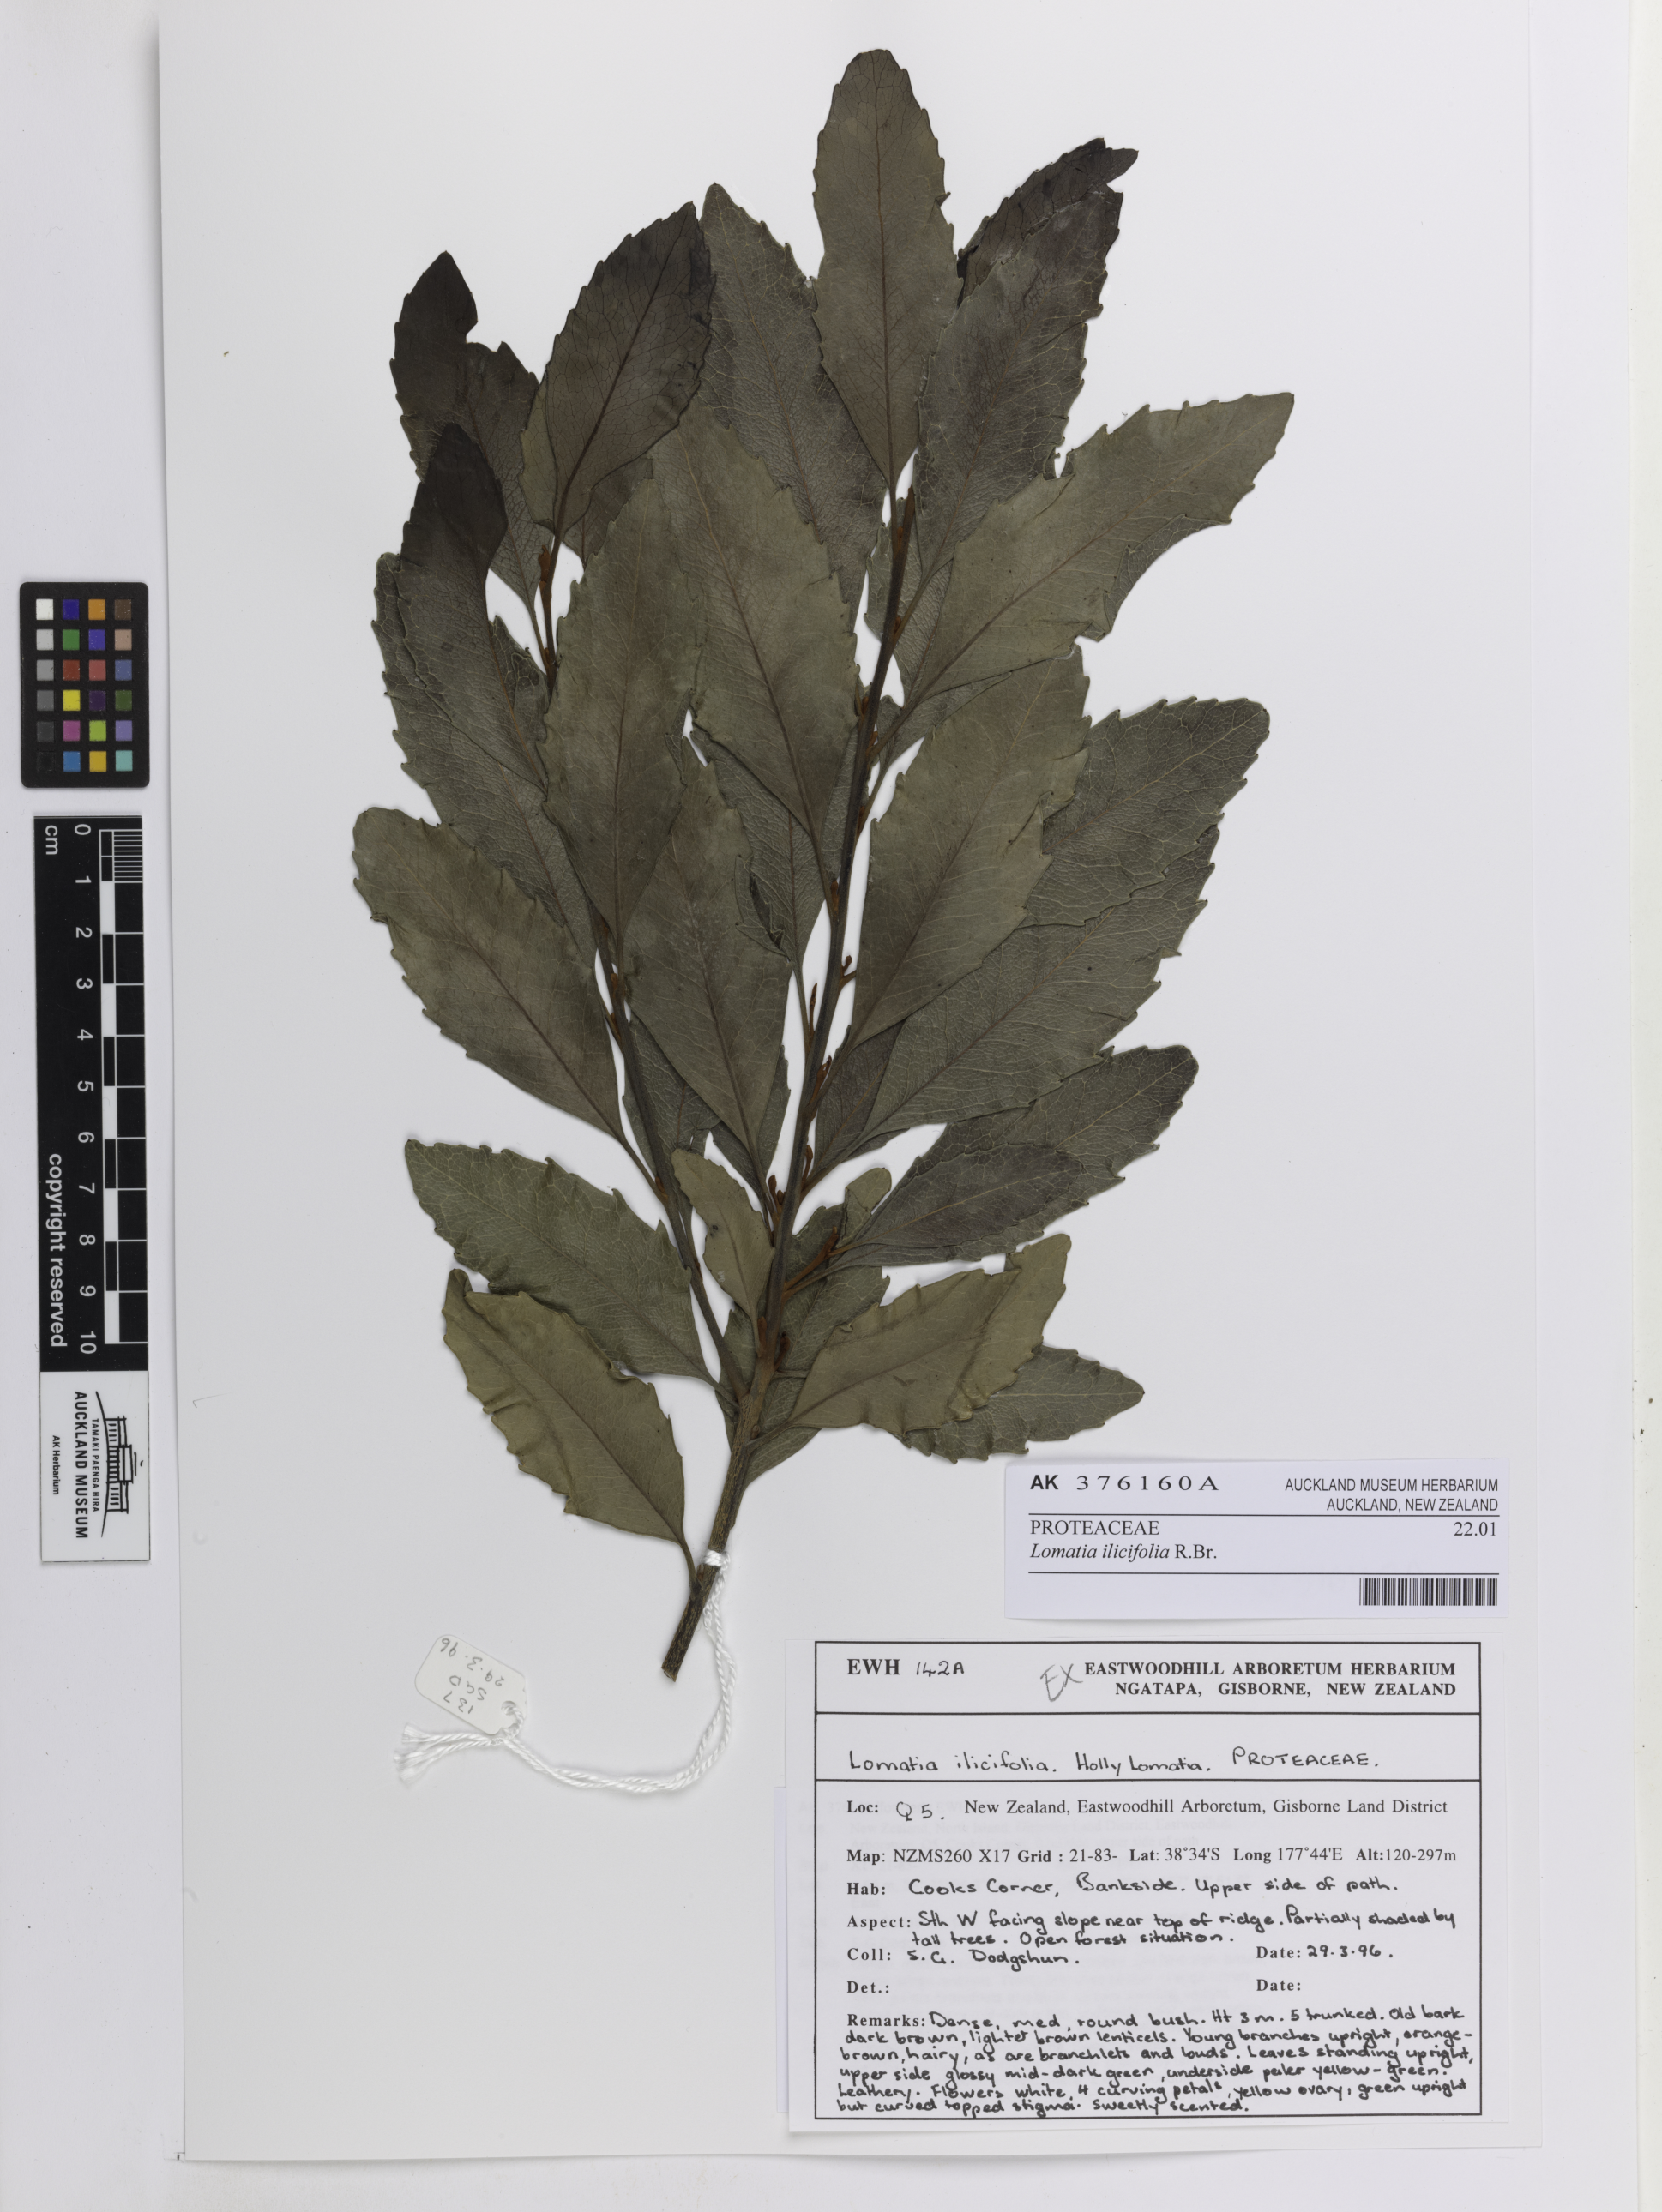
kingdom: Plantae
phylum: Tracheophyta
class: Magnoliopsida
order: Proteales
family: Proteaceae
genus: Lomatia
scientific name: Lomatia ilicifolia
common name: Native-holly
